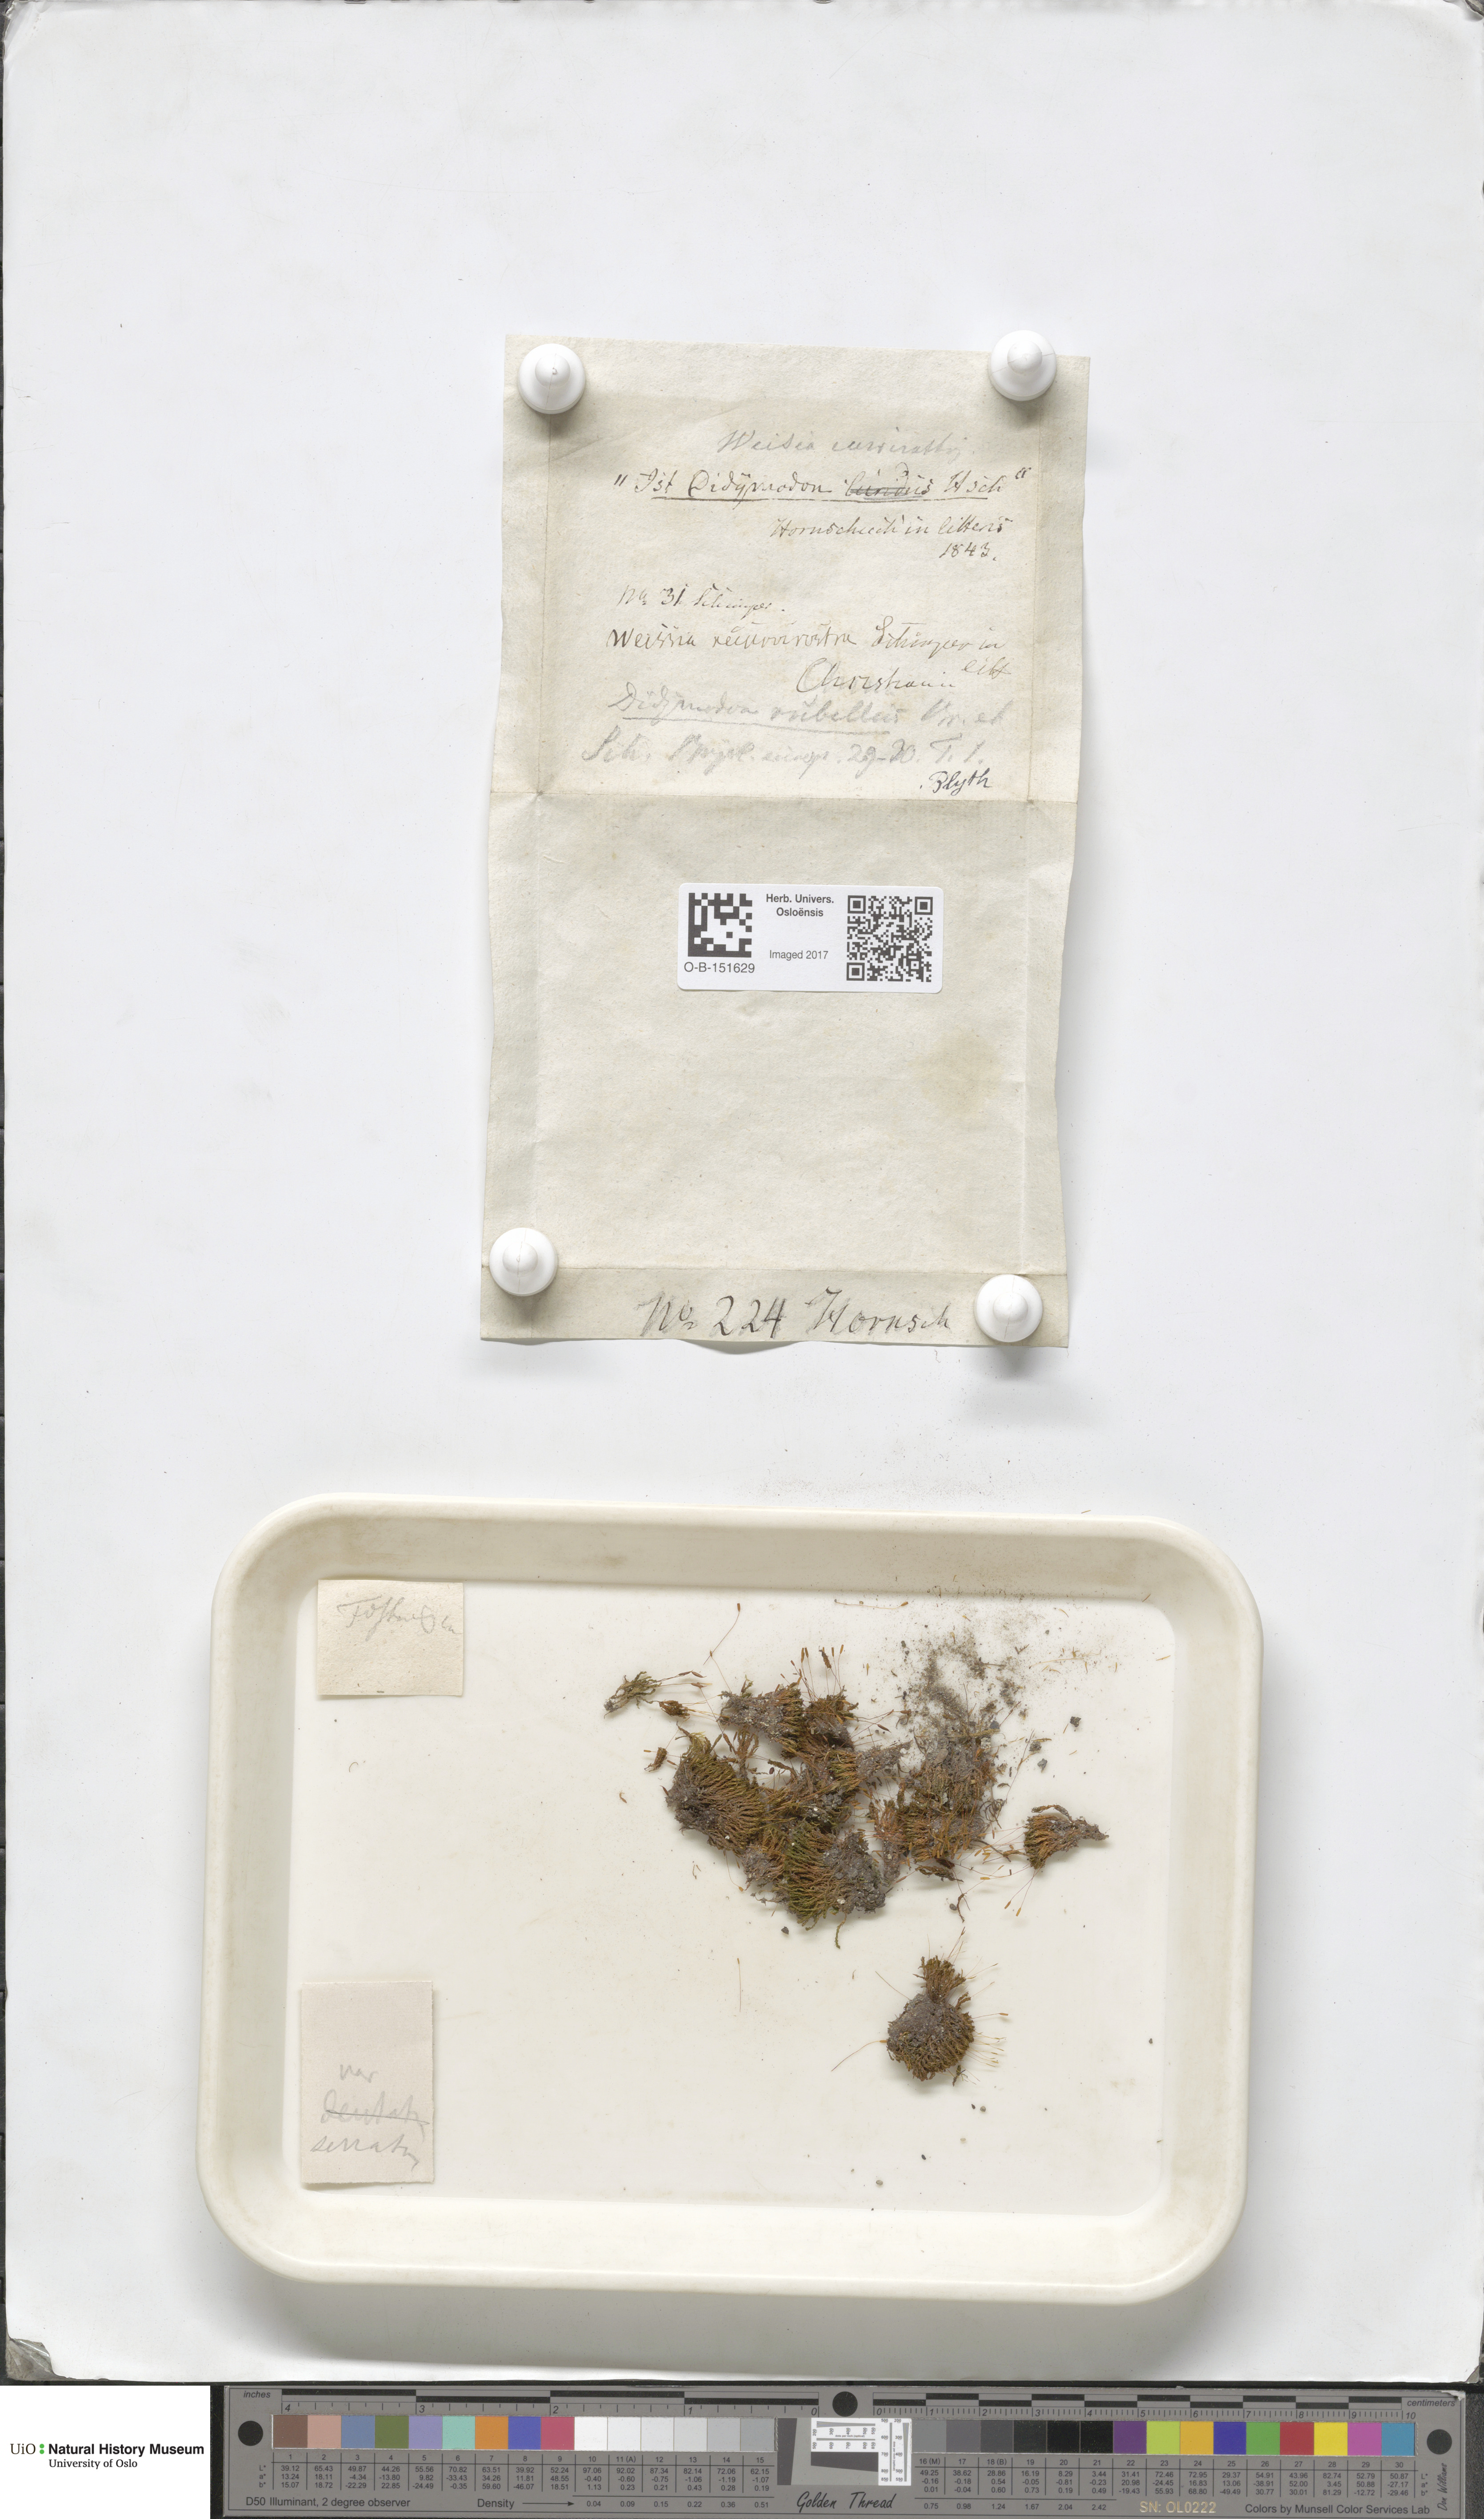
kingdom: Plantae
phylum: Bryophyta
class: Bryopsida
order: Pottiales
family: Pottiaceae
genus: Bryoerythrophyllum
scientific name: Bryoerythrophyllum recurvirostrum
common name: Red beard moss
